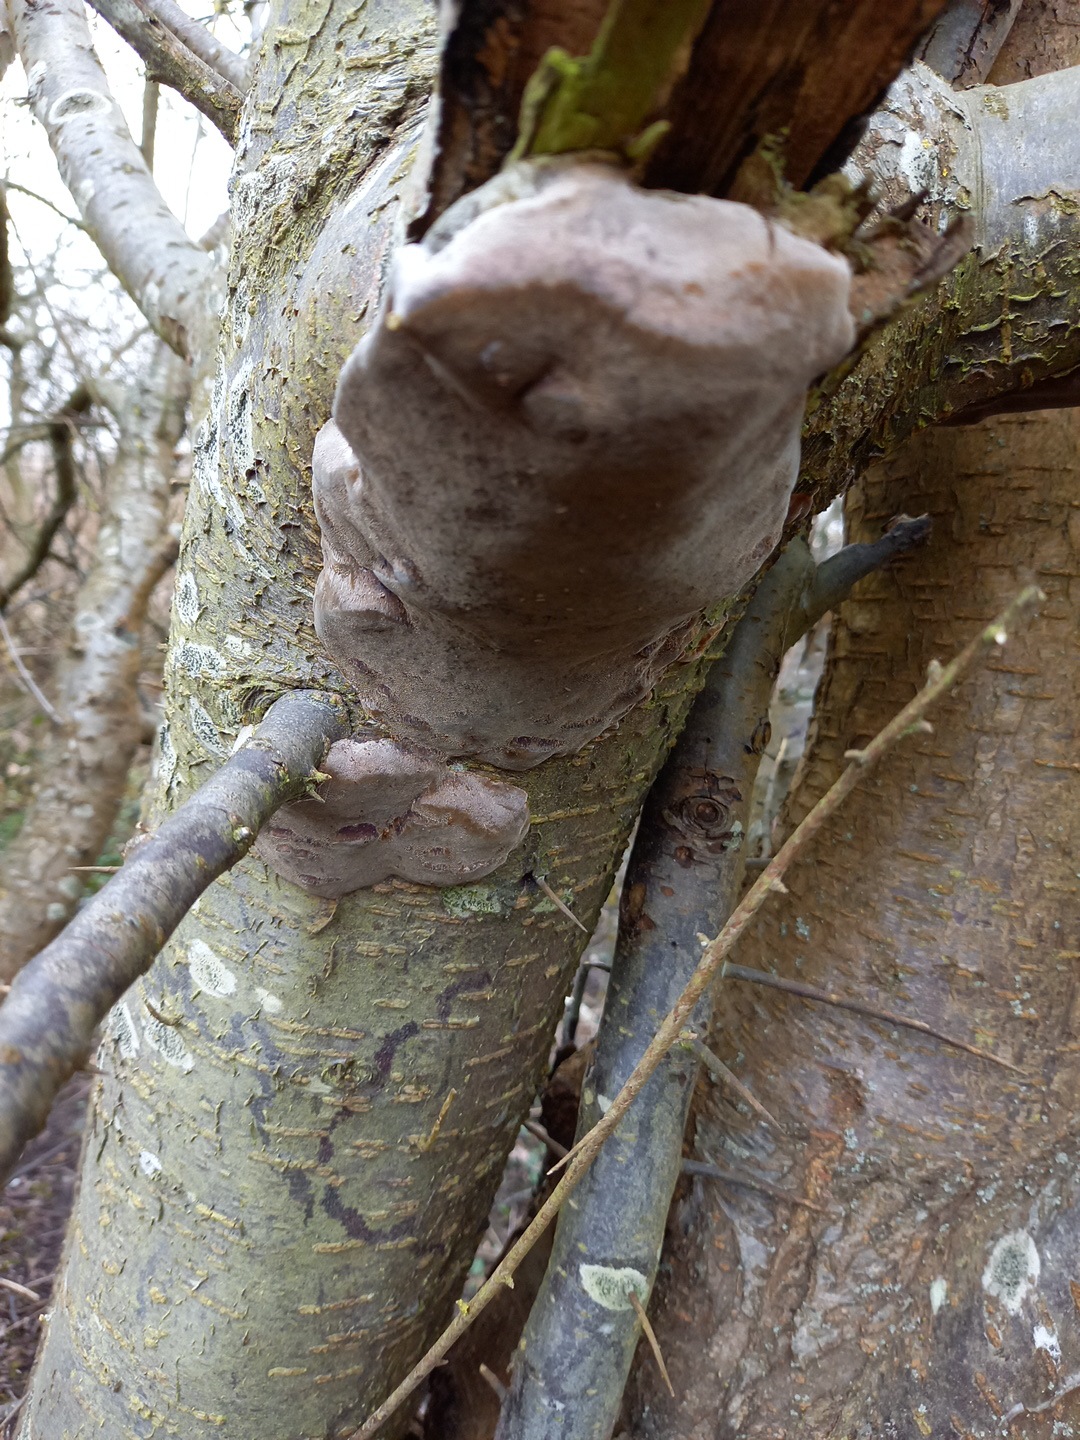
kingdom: Fungi
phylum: Basidiomycota
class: Agaricomycetes
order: Hymenochaetales
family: Hymenochaetaceae
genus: Phellinus
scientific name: Phellinus pomaceus
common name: blomme-ildporesvamp
